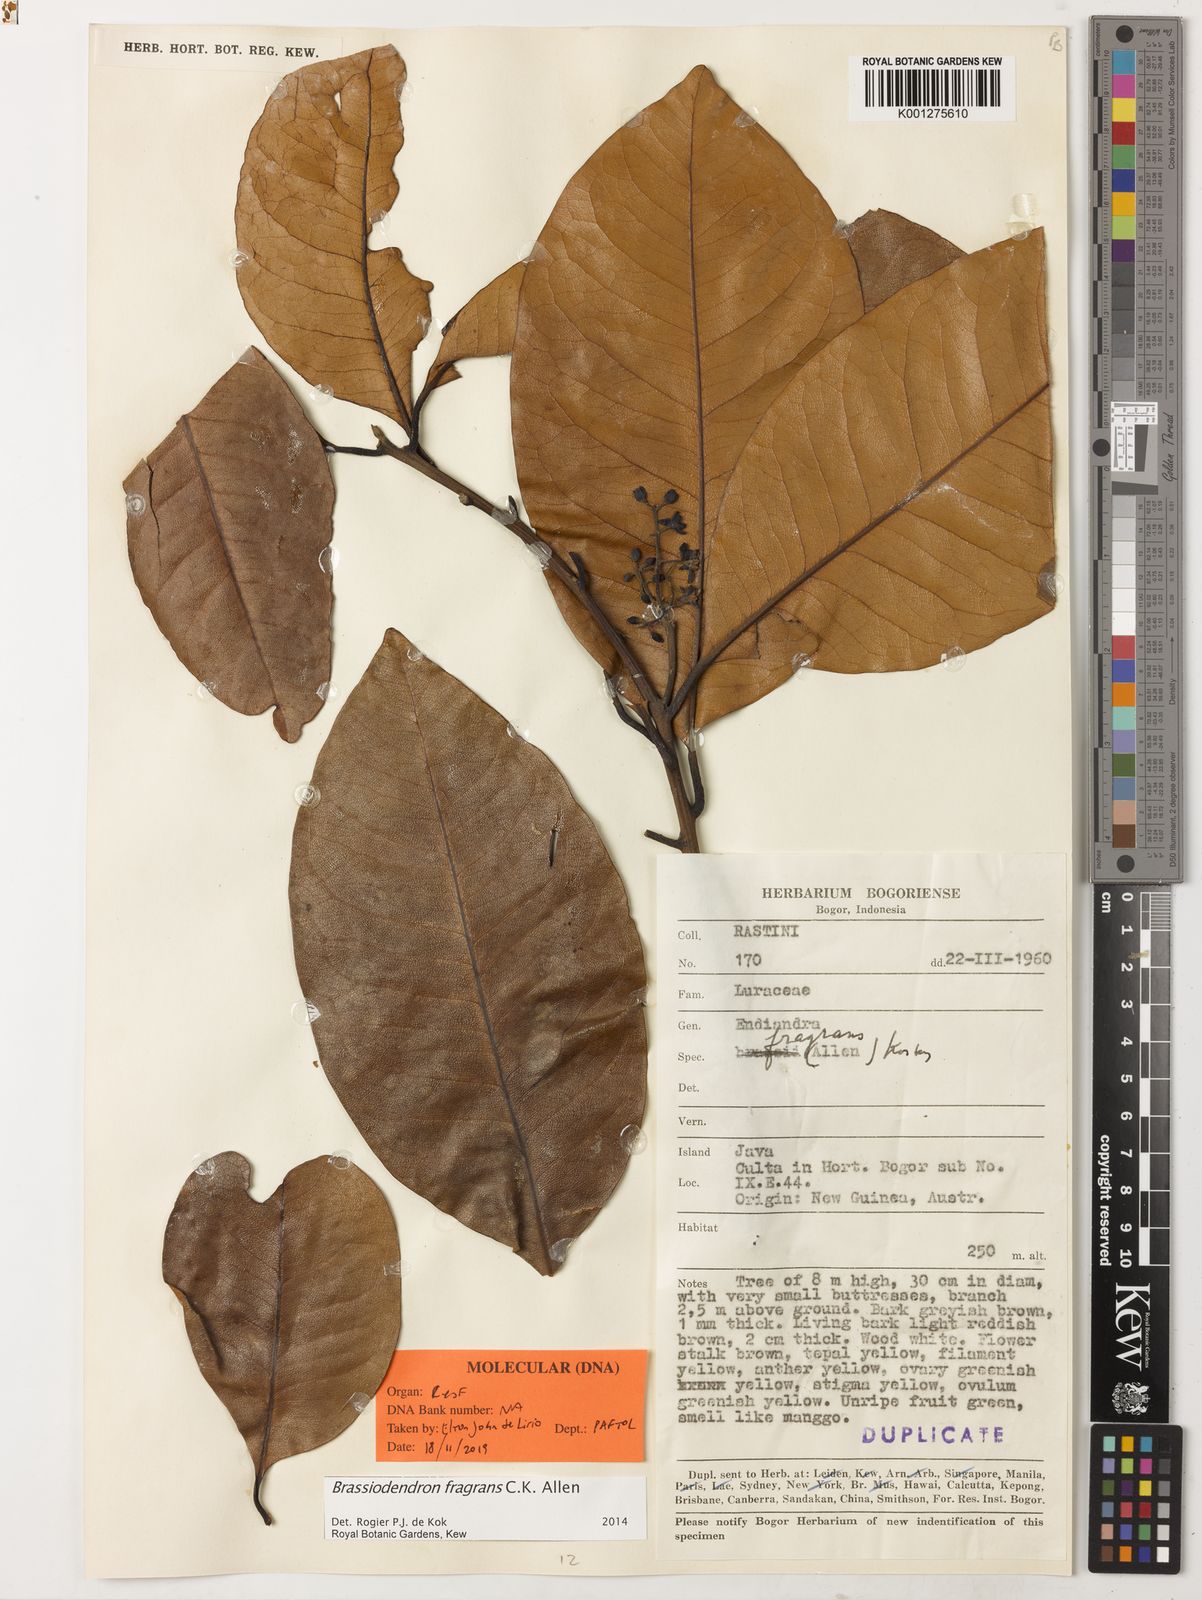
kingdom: Plantae
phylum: Tracheophyta
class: Magnoliopsida
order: Laurales
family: Lauraceae
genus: Endiandra
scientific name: Endiandra montana
